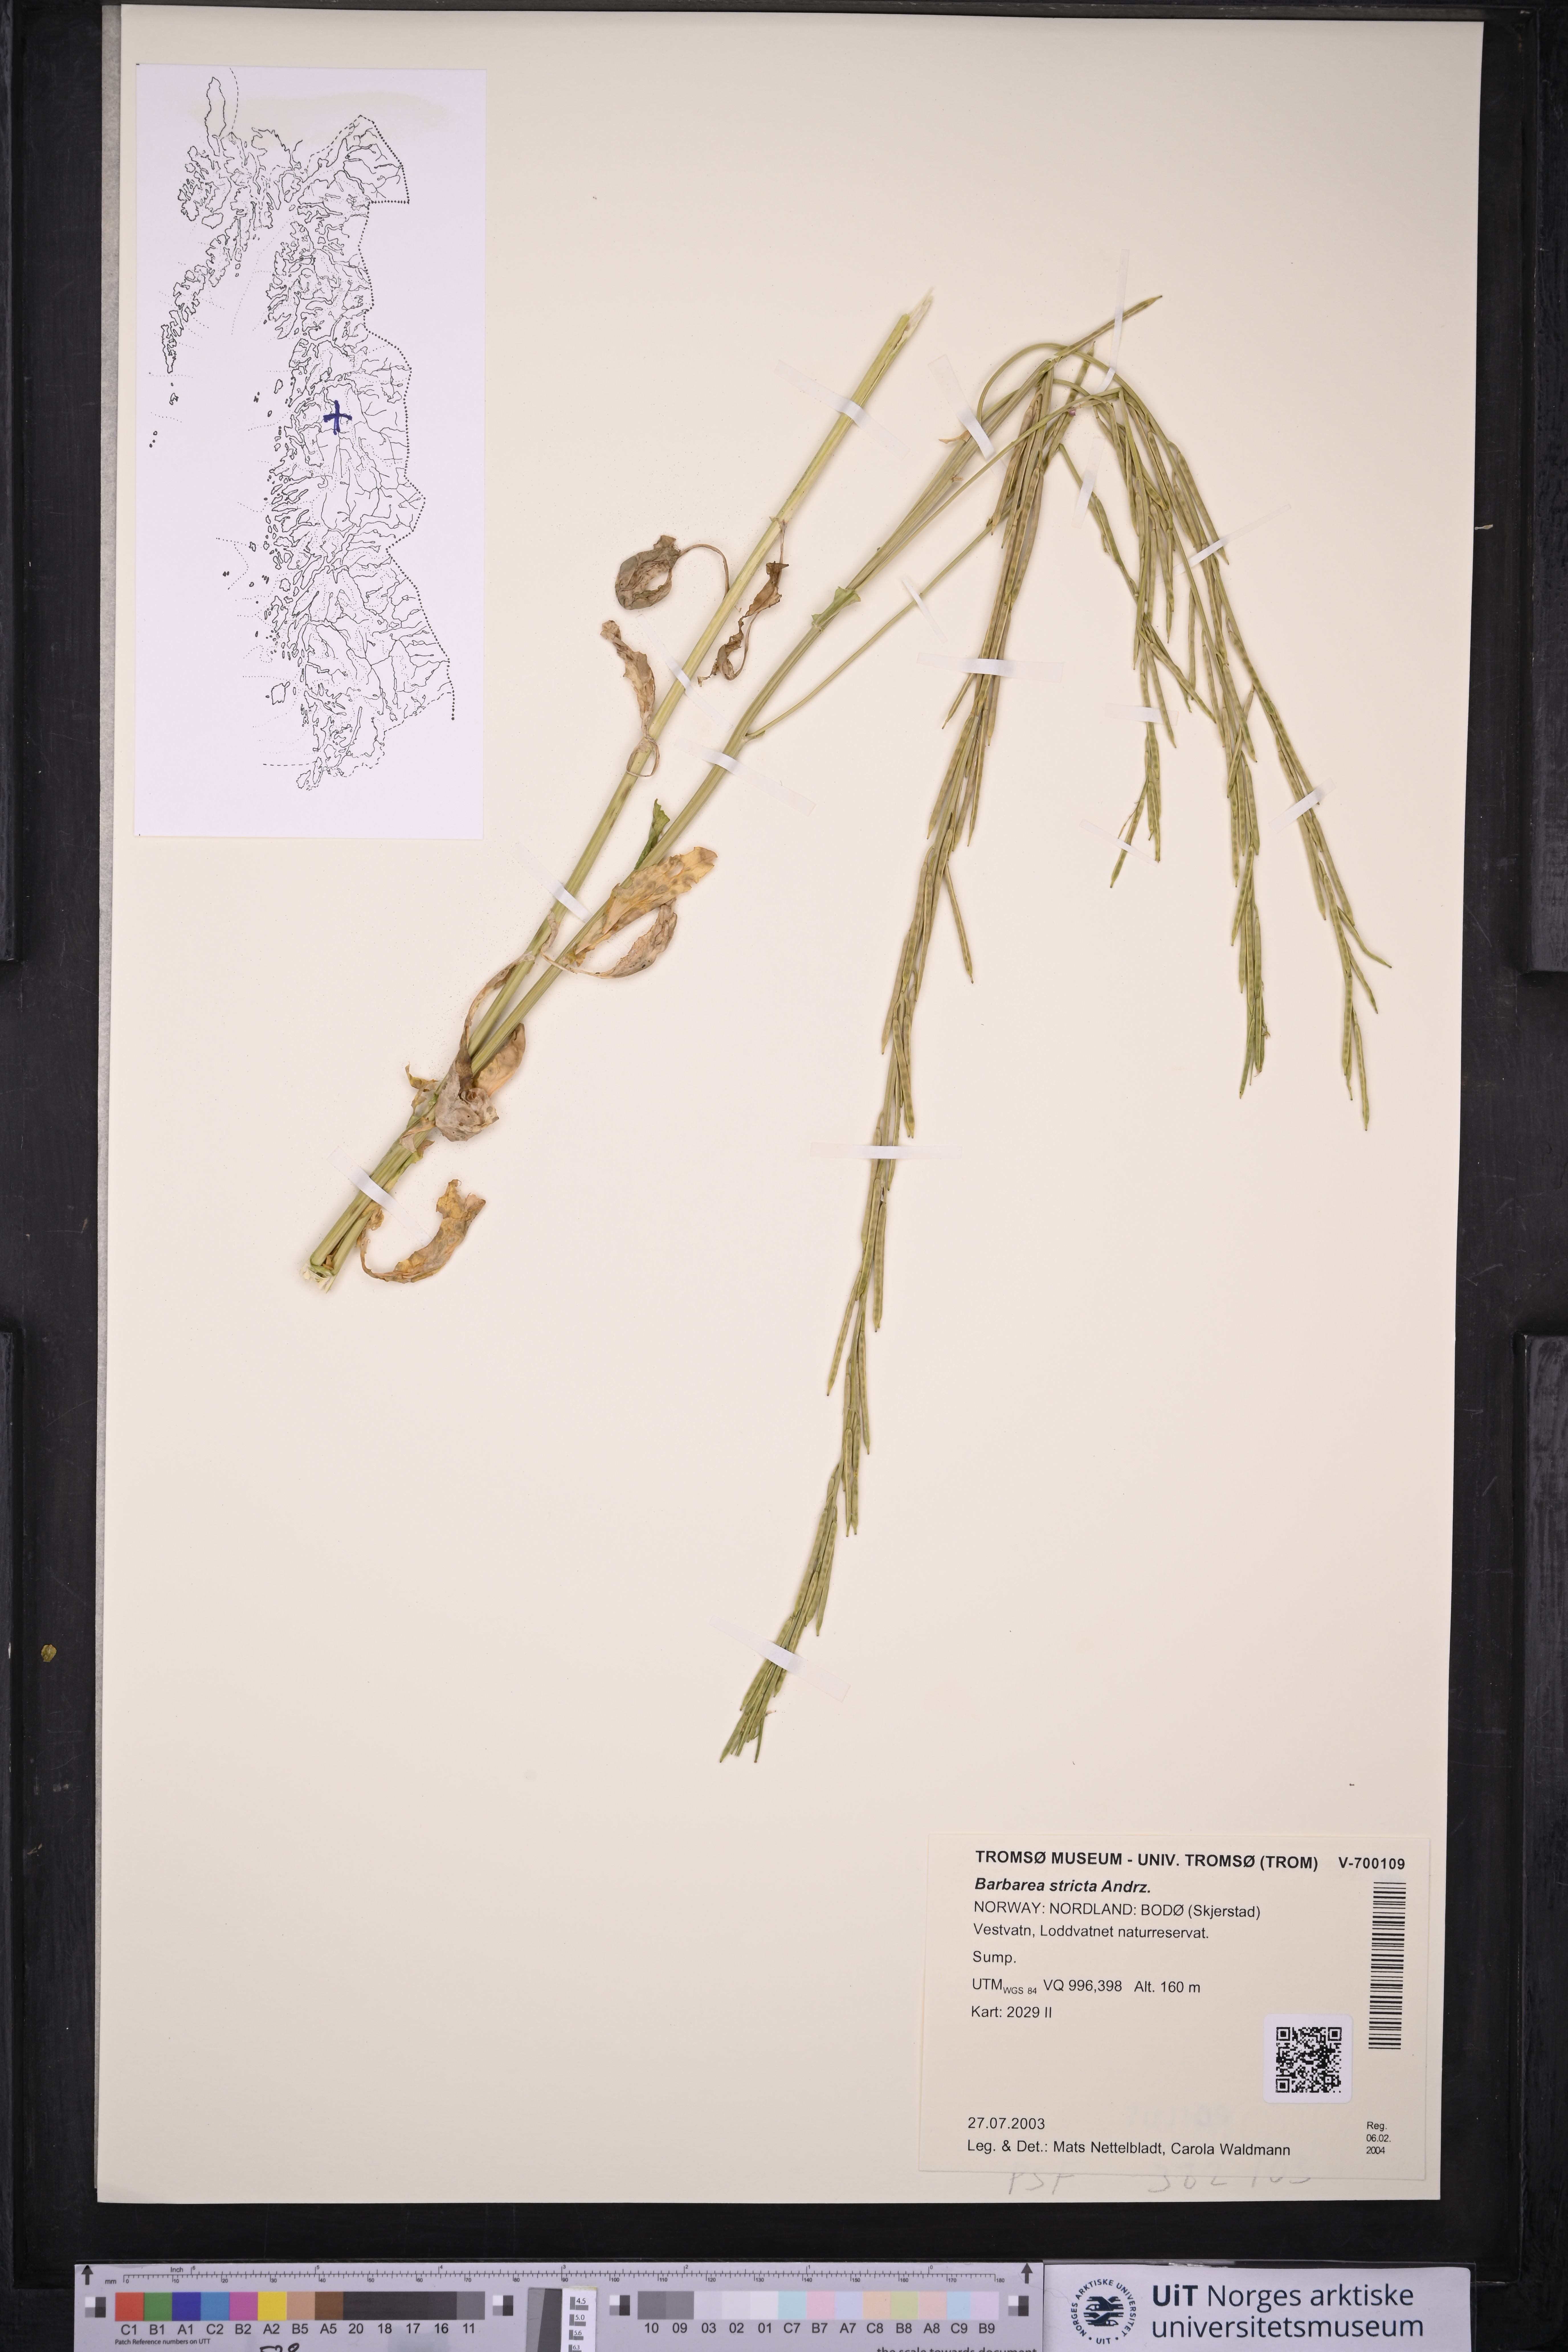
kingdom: Plantae
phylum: Tracheophyta
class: Magnoliopsida
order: Brassicales
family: Brassicaceae
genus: Barbarea
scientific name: Barbarea stricta
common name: Small-flowered winter-cress
